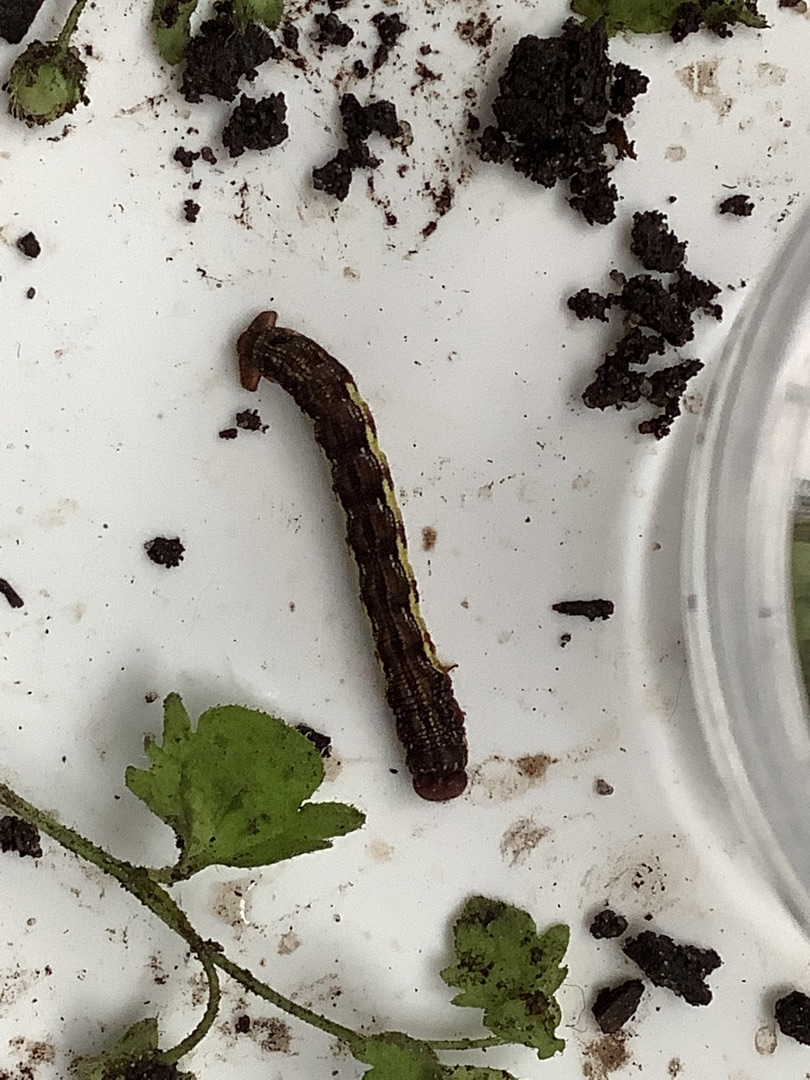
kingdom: Animalia
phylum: Arthropoda
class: Insecta
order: Lepidoptera
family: Geometridae
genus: Erannis
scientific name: Erannis defoliaria
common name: Stor frostmåler
